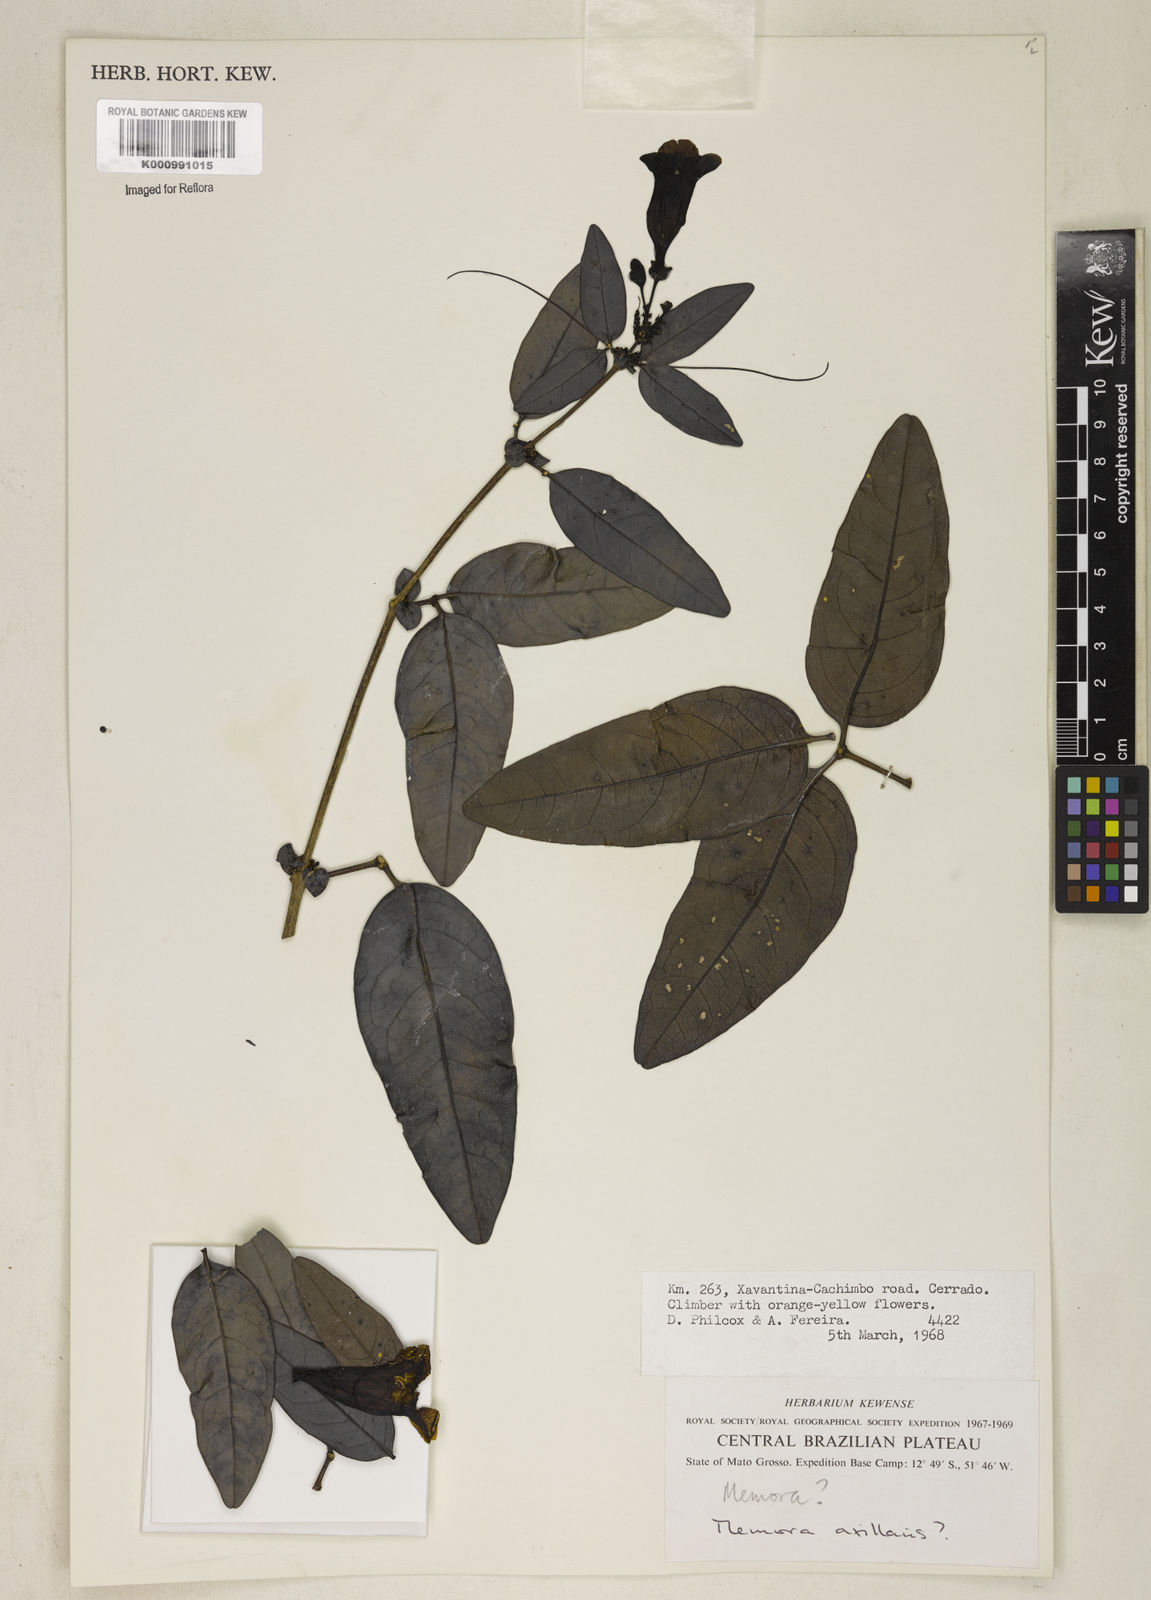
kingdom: Plantae
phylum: Tracheophyta
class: Magnoliopsida
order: Lamiales
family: Bignoniaceae
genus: Adenocalymma
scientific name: Adenocalymma axillare
